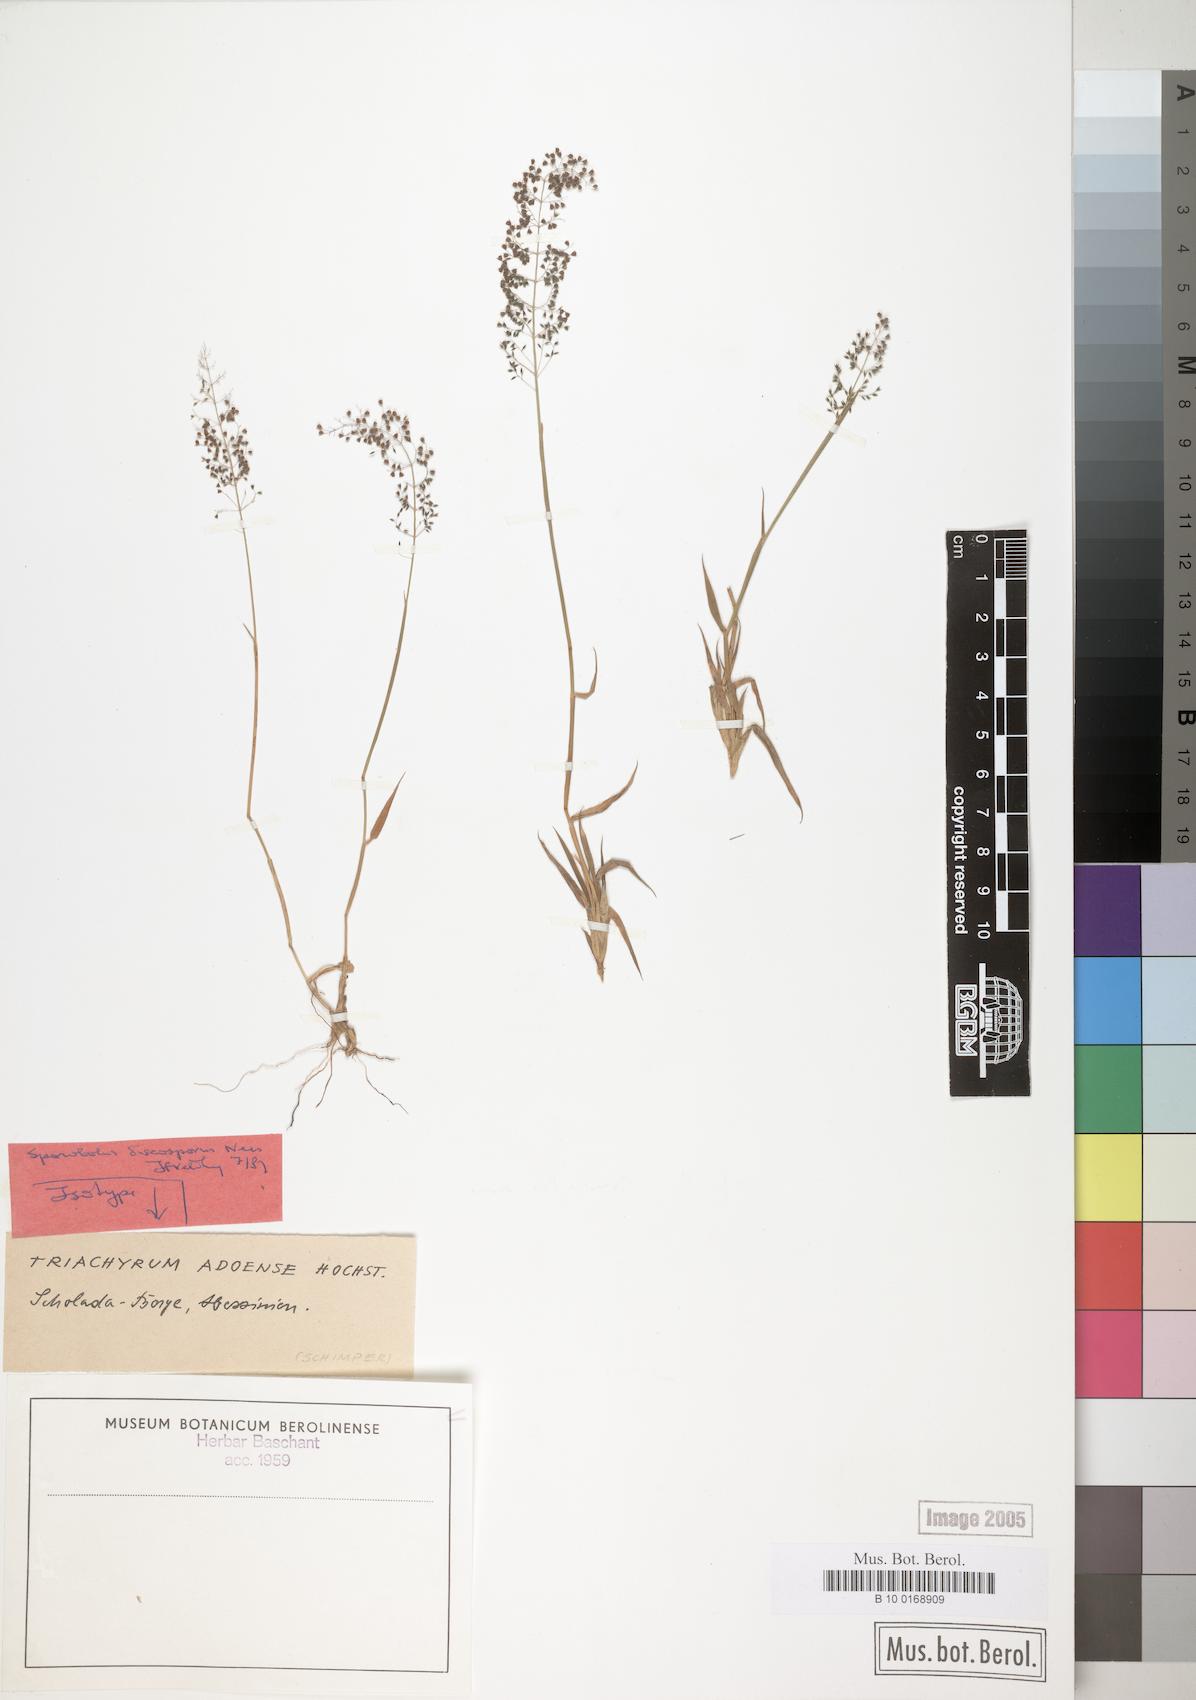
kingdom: Plantae
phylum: Tracheophyta
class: Liliopsida
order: Poales
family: Poaceae
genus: Sporobolus
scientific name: Sporobolus Triachyrum adoense
